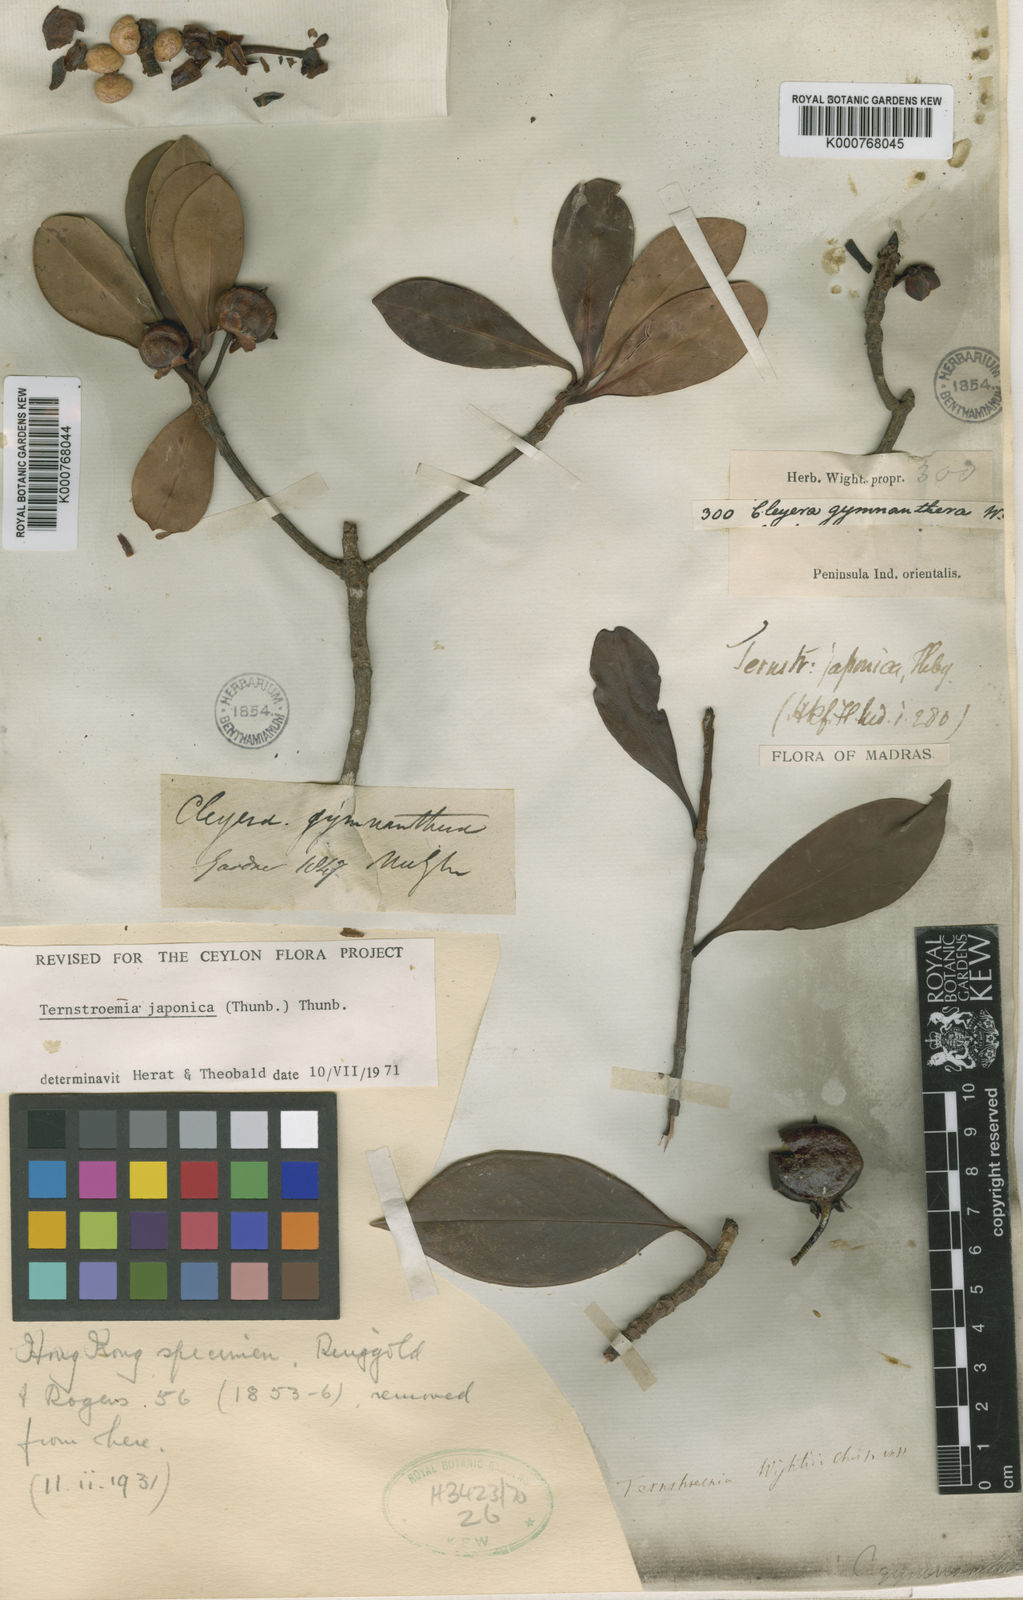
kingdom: Plantae
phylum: Tracheophyta
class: Magnoliopsida
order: Ericales
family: Pentaphylacaceae
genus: Cleyera
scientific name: Cleyera japonica
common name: Sakaki
